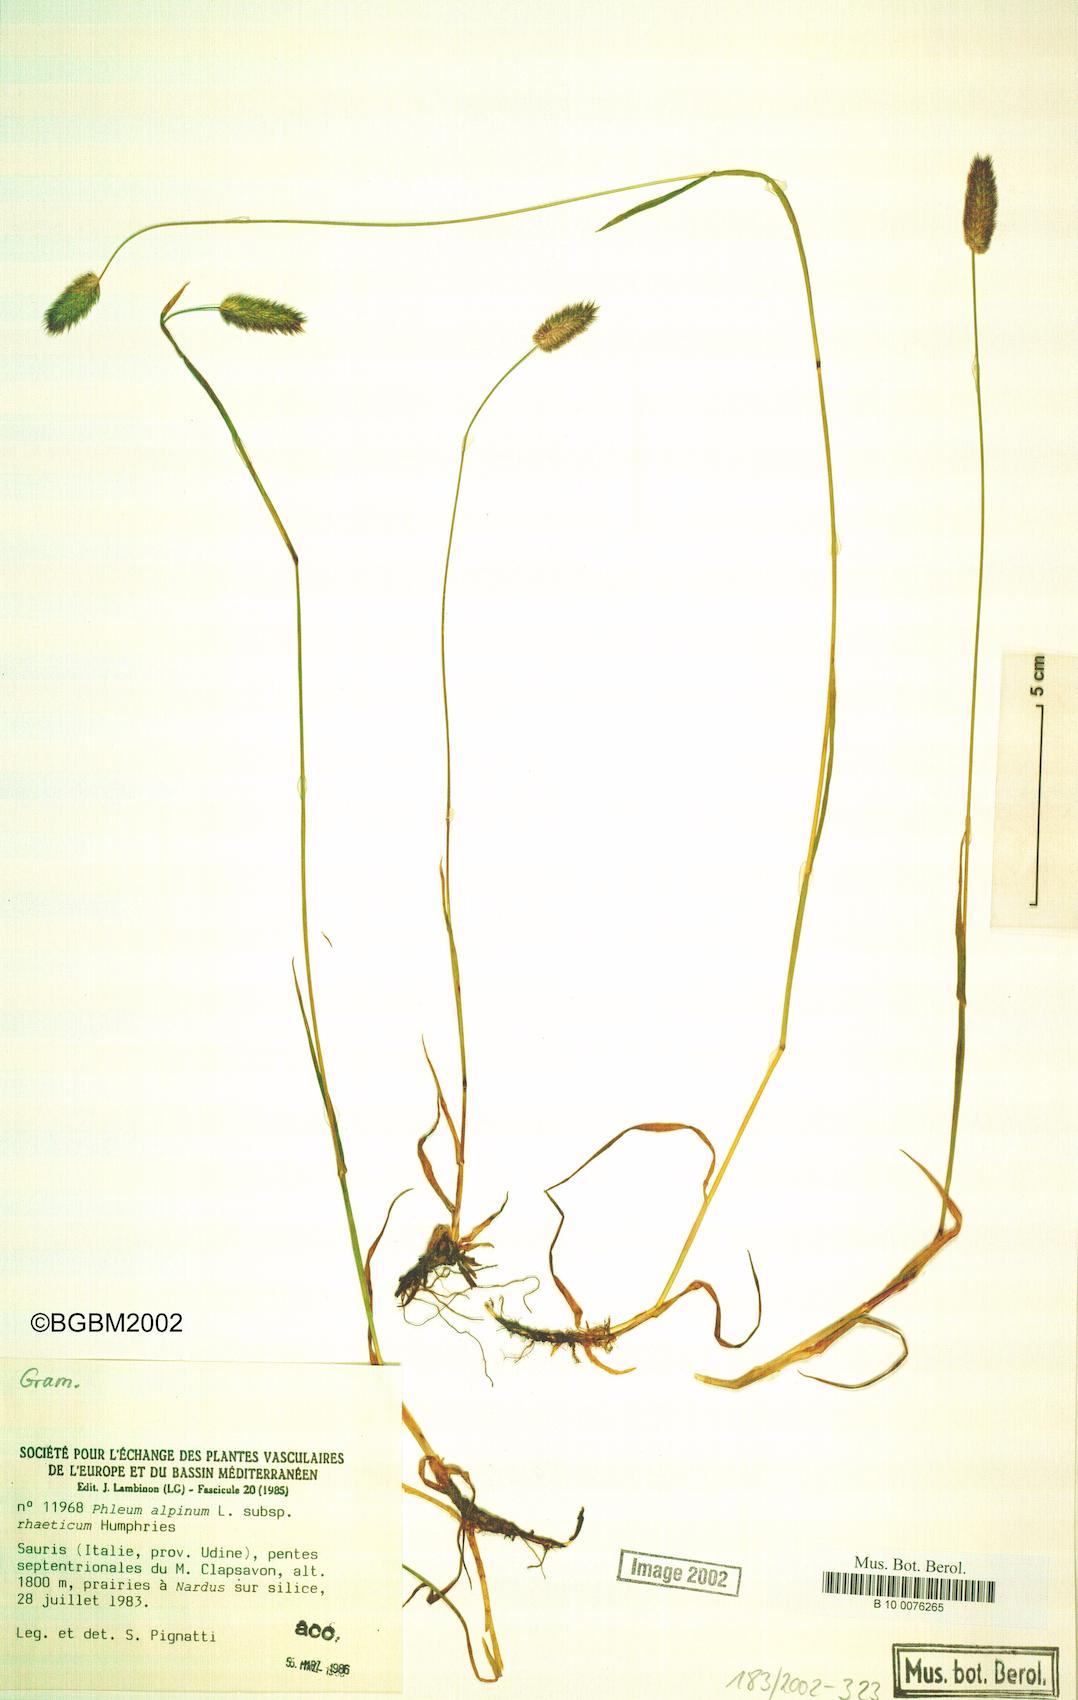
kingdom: Plantae
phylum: Tracheophyta
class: Liliopsida
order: Poales
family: Poaceae
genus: Phleum
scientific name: Phleum alpinum
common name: Alpine cat's-tail
